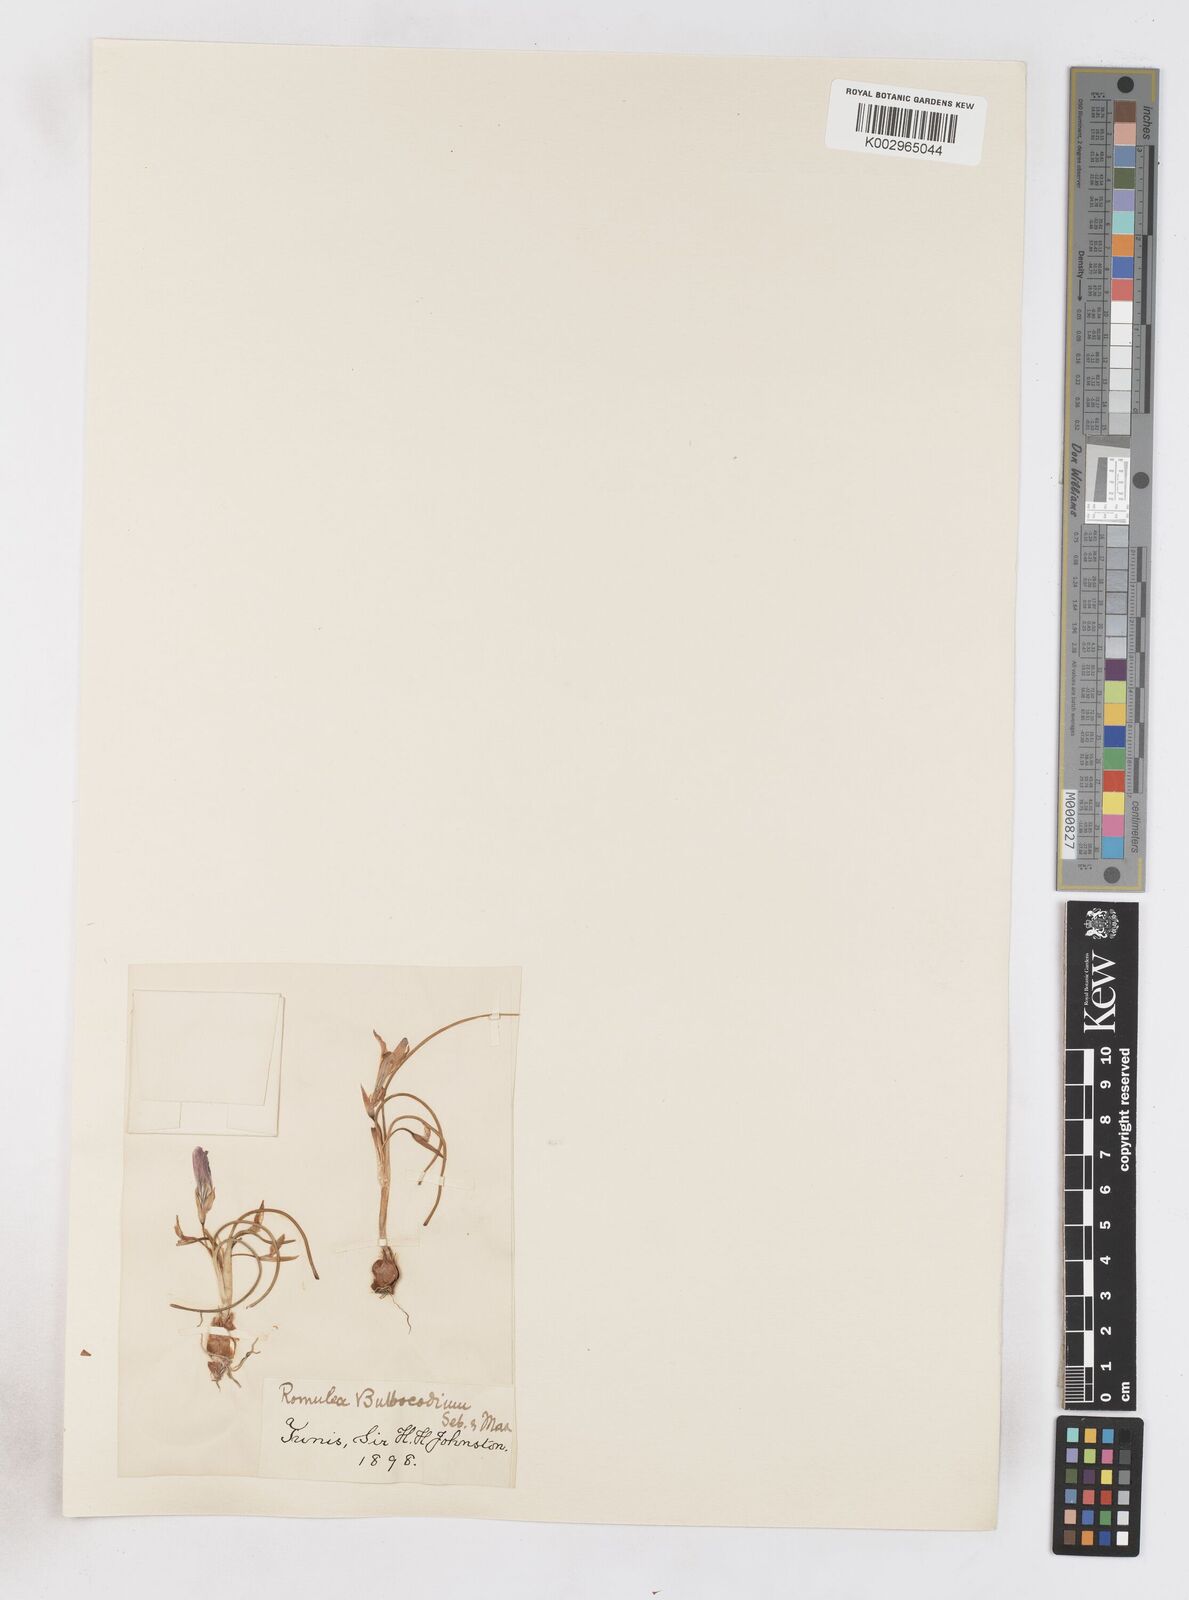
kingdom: Plantae
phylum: Tracheophyta
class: Liliopsida
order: Asparagales
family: Iridaceae
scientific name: Iridaceae
